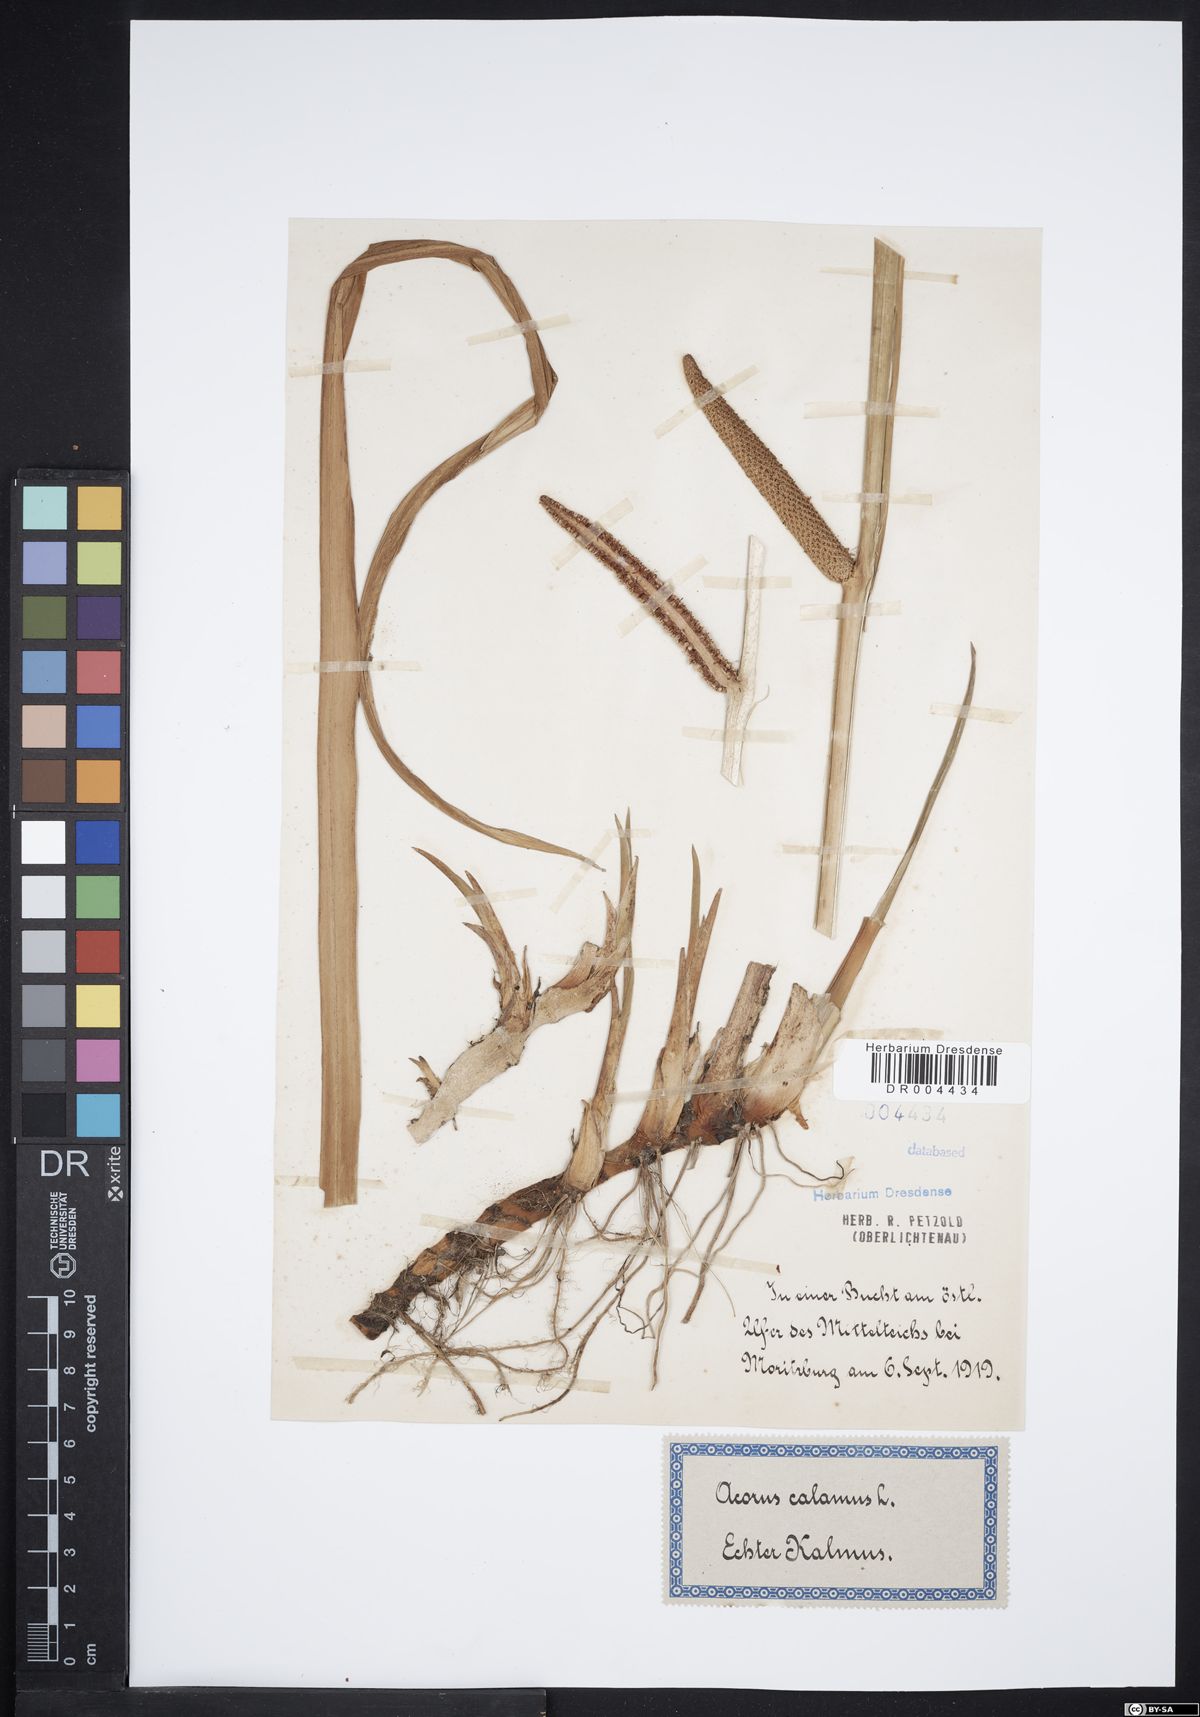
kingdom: Plantae
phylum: Tracheophyta
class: Liliopsida
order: Acorales
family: Acoraceae
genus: Acorus
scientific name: Acorus calamus
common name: Sweet-flag
